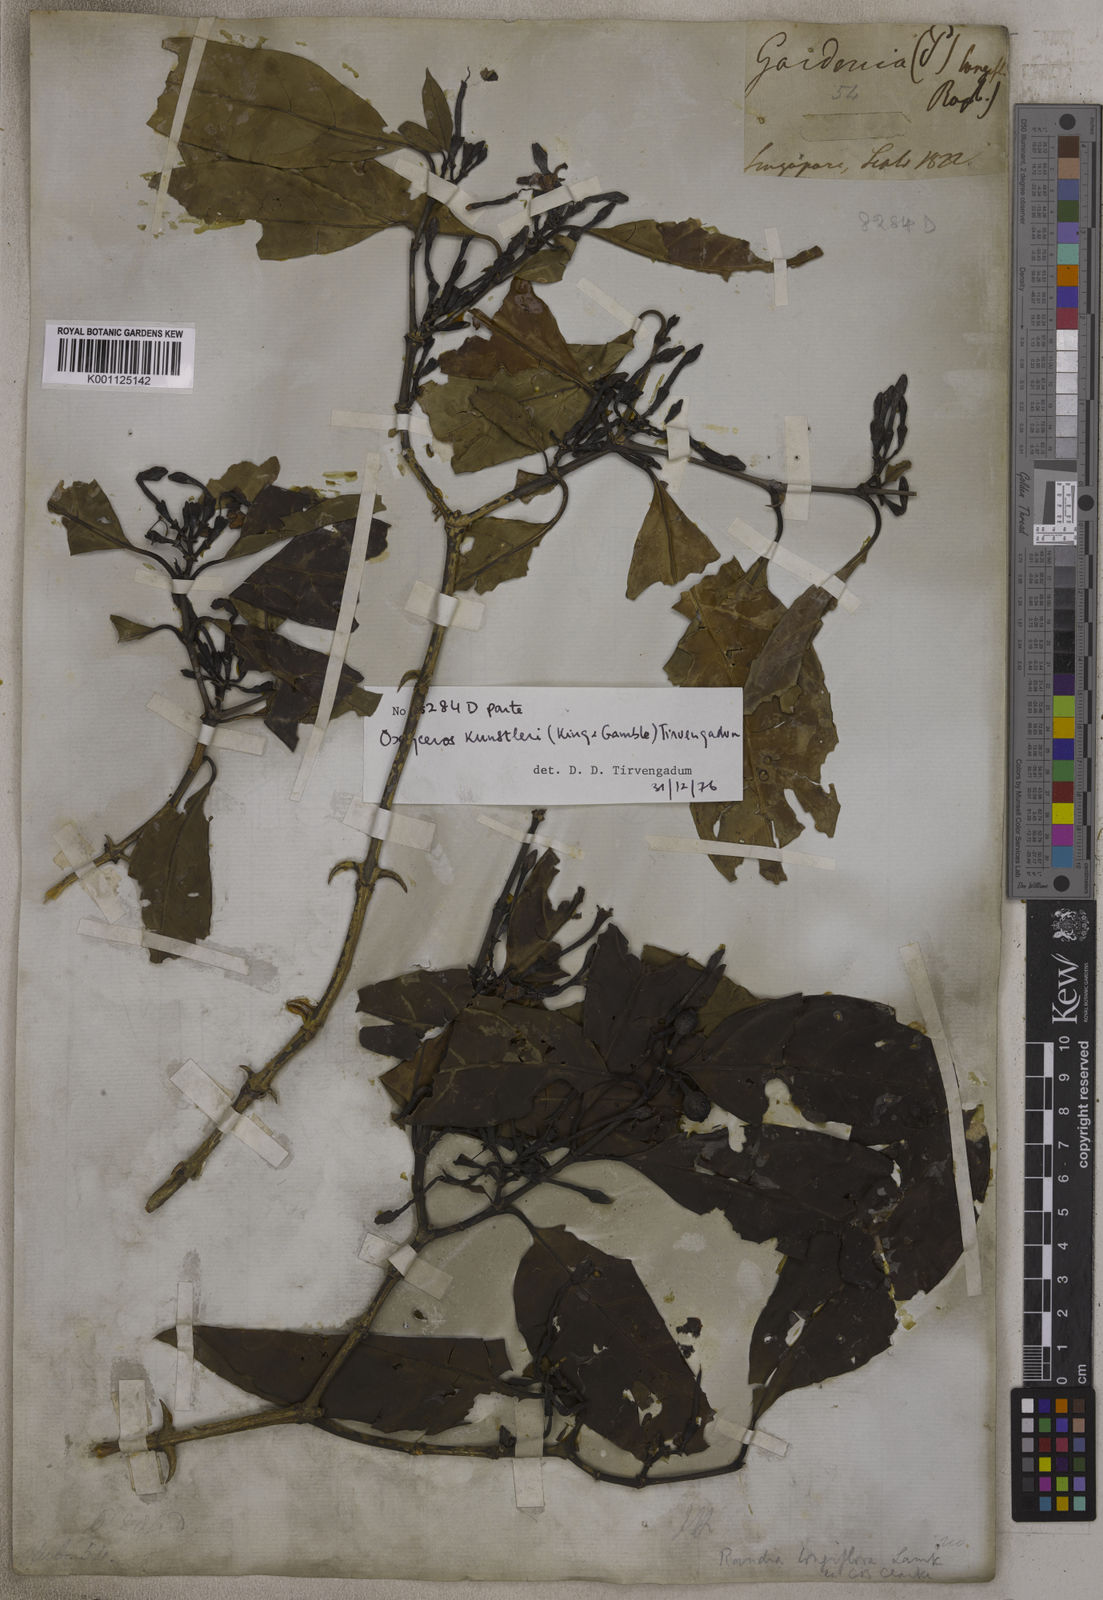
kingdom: Plantae
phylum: Tracheophyta
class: Magnoliopsida
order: Gentianales
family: Rubiaceae
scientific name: Rubiaceae
